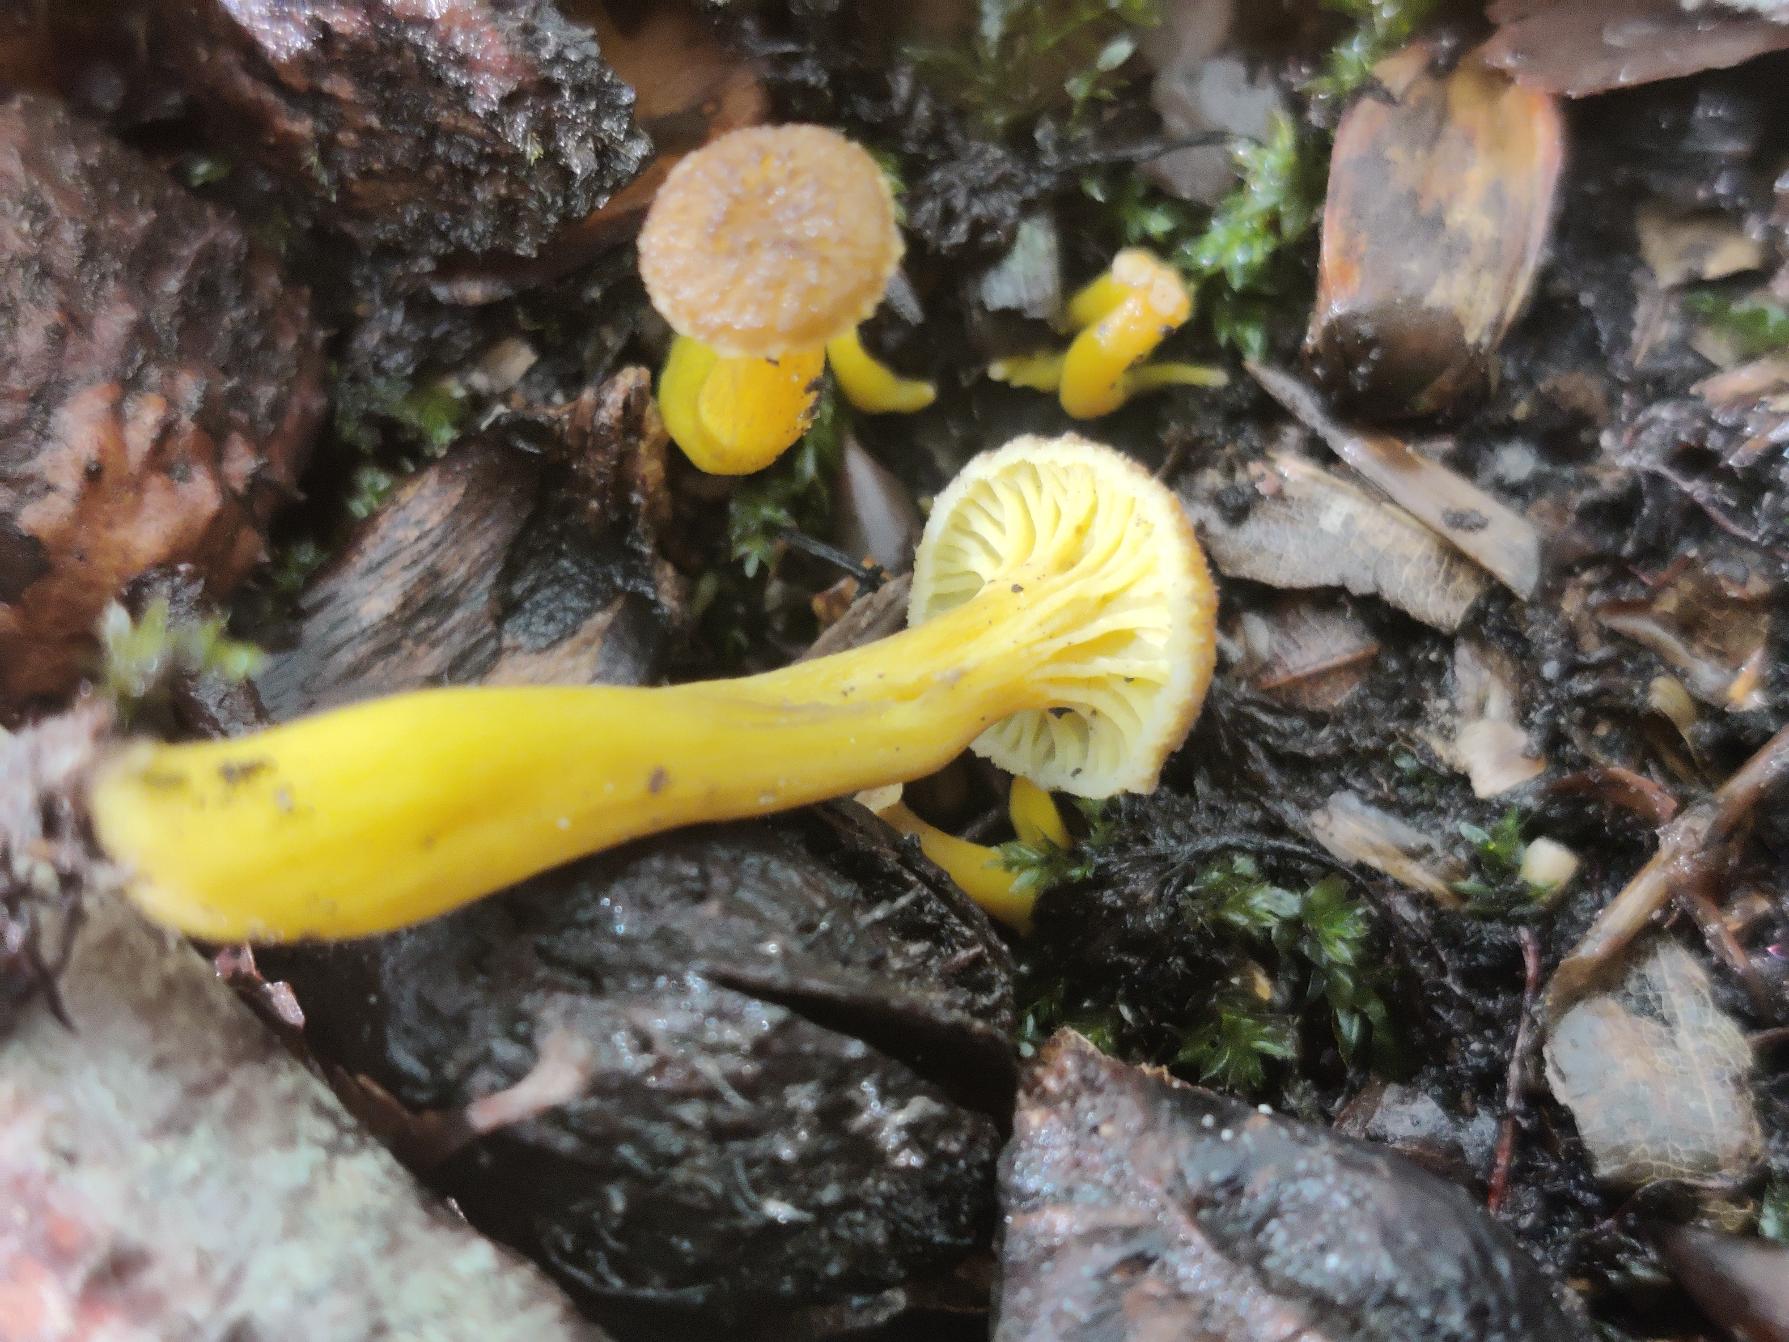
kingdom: Fungi
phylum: Basidiomycota
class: Agaricomycetes
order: Cantharellales
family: Hydnaceae
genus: Craterellus
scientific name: Craterellus tubaeformis
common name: Tragt-kantarel
